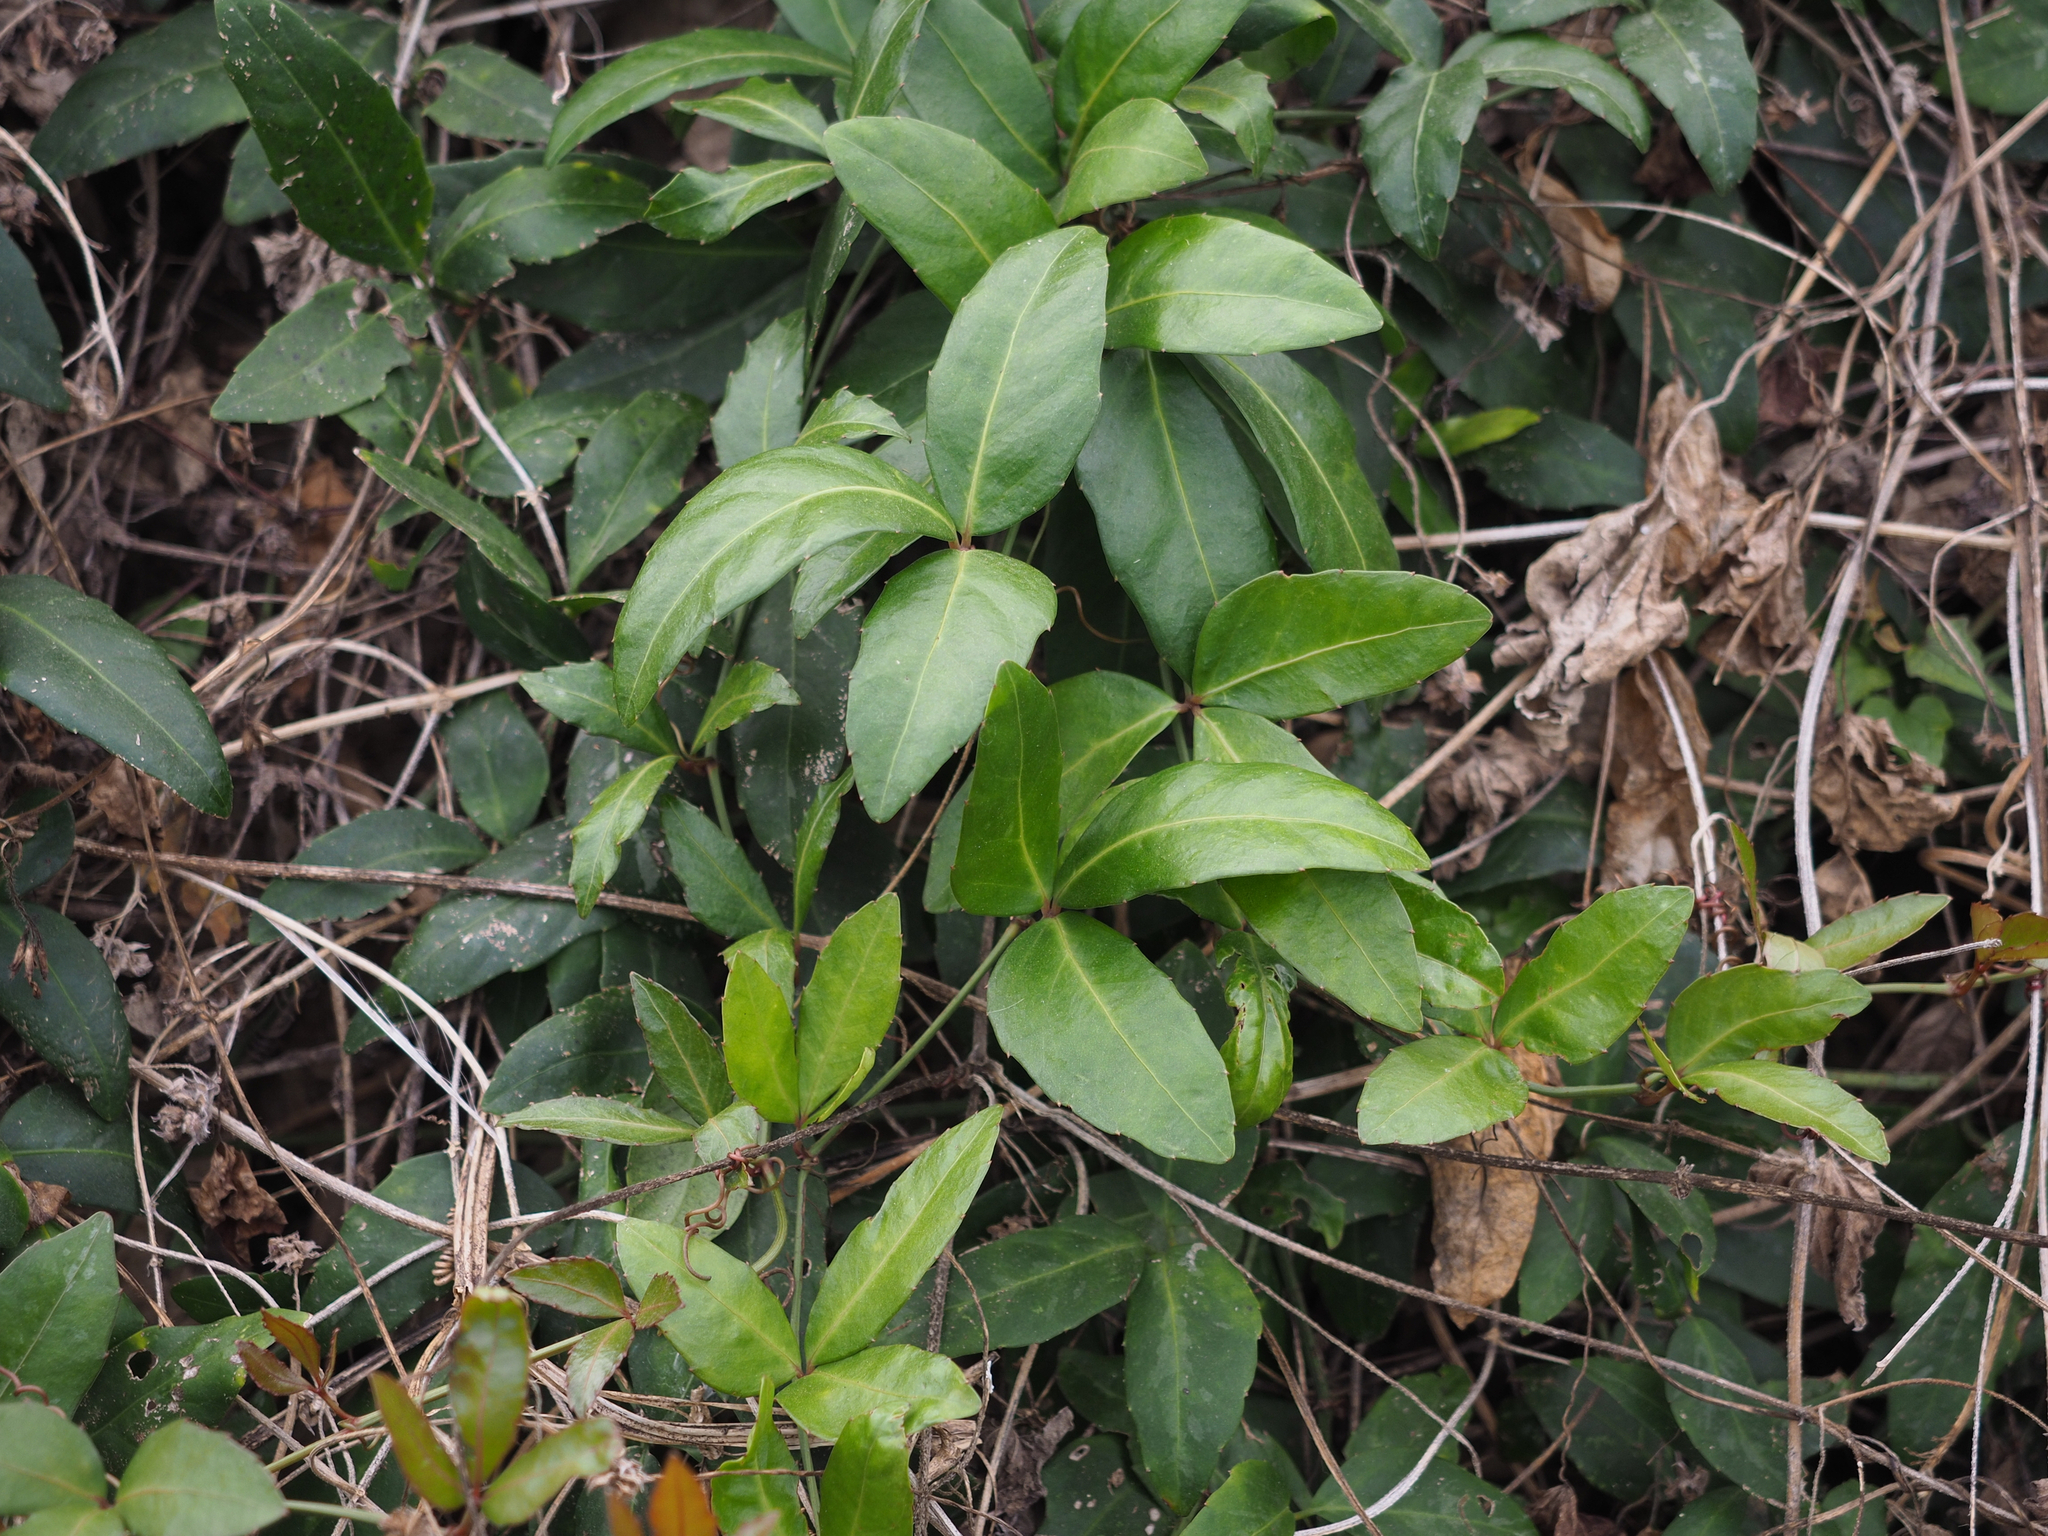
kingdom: Plantae
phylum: Tracheophyta
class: Magnoliopsida
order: Vitales
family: Vitaceae
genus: Tetrastigma
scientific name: Tetrastigma dentatum
